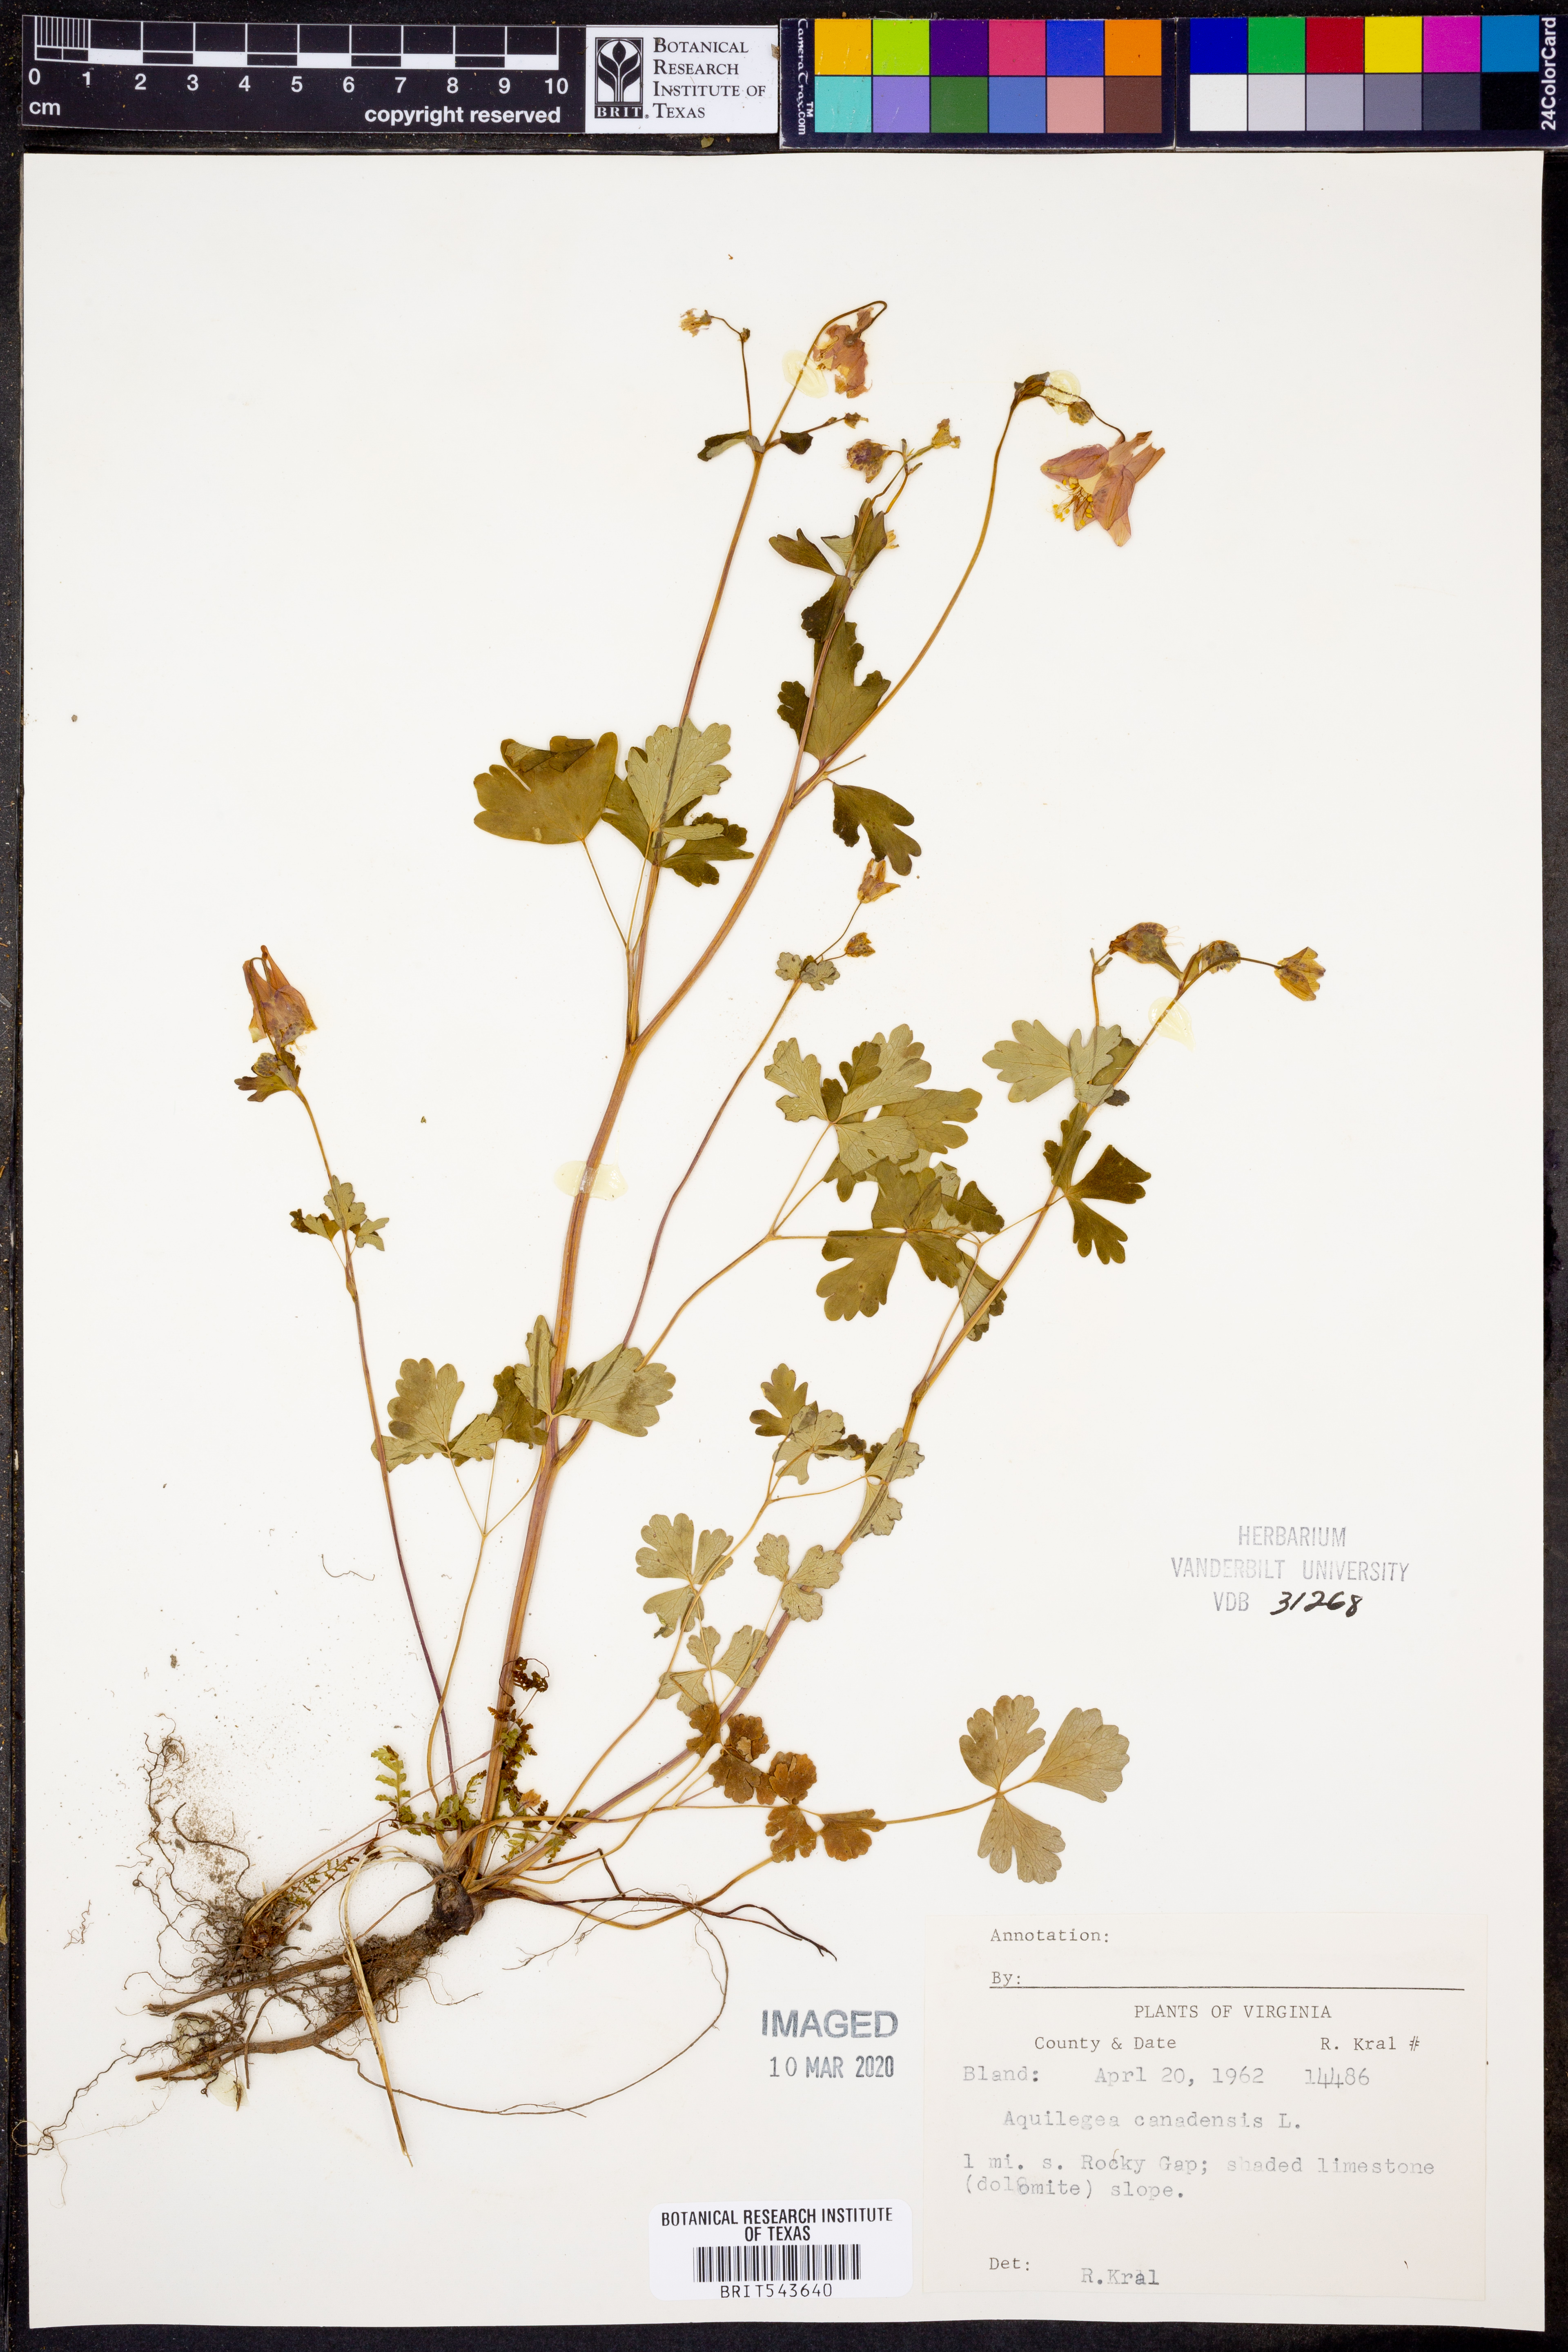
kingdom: Plantae
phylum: Tracheophyta
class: Magnoliopsida
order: Ranunculales
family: Ranunculaceae
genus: Aquilegia
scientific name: Aquilegia canadensis
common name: American columbine
